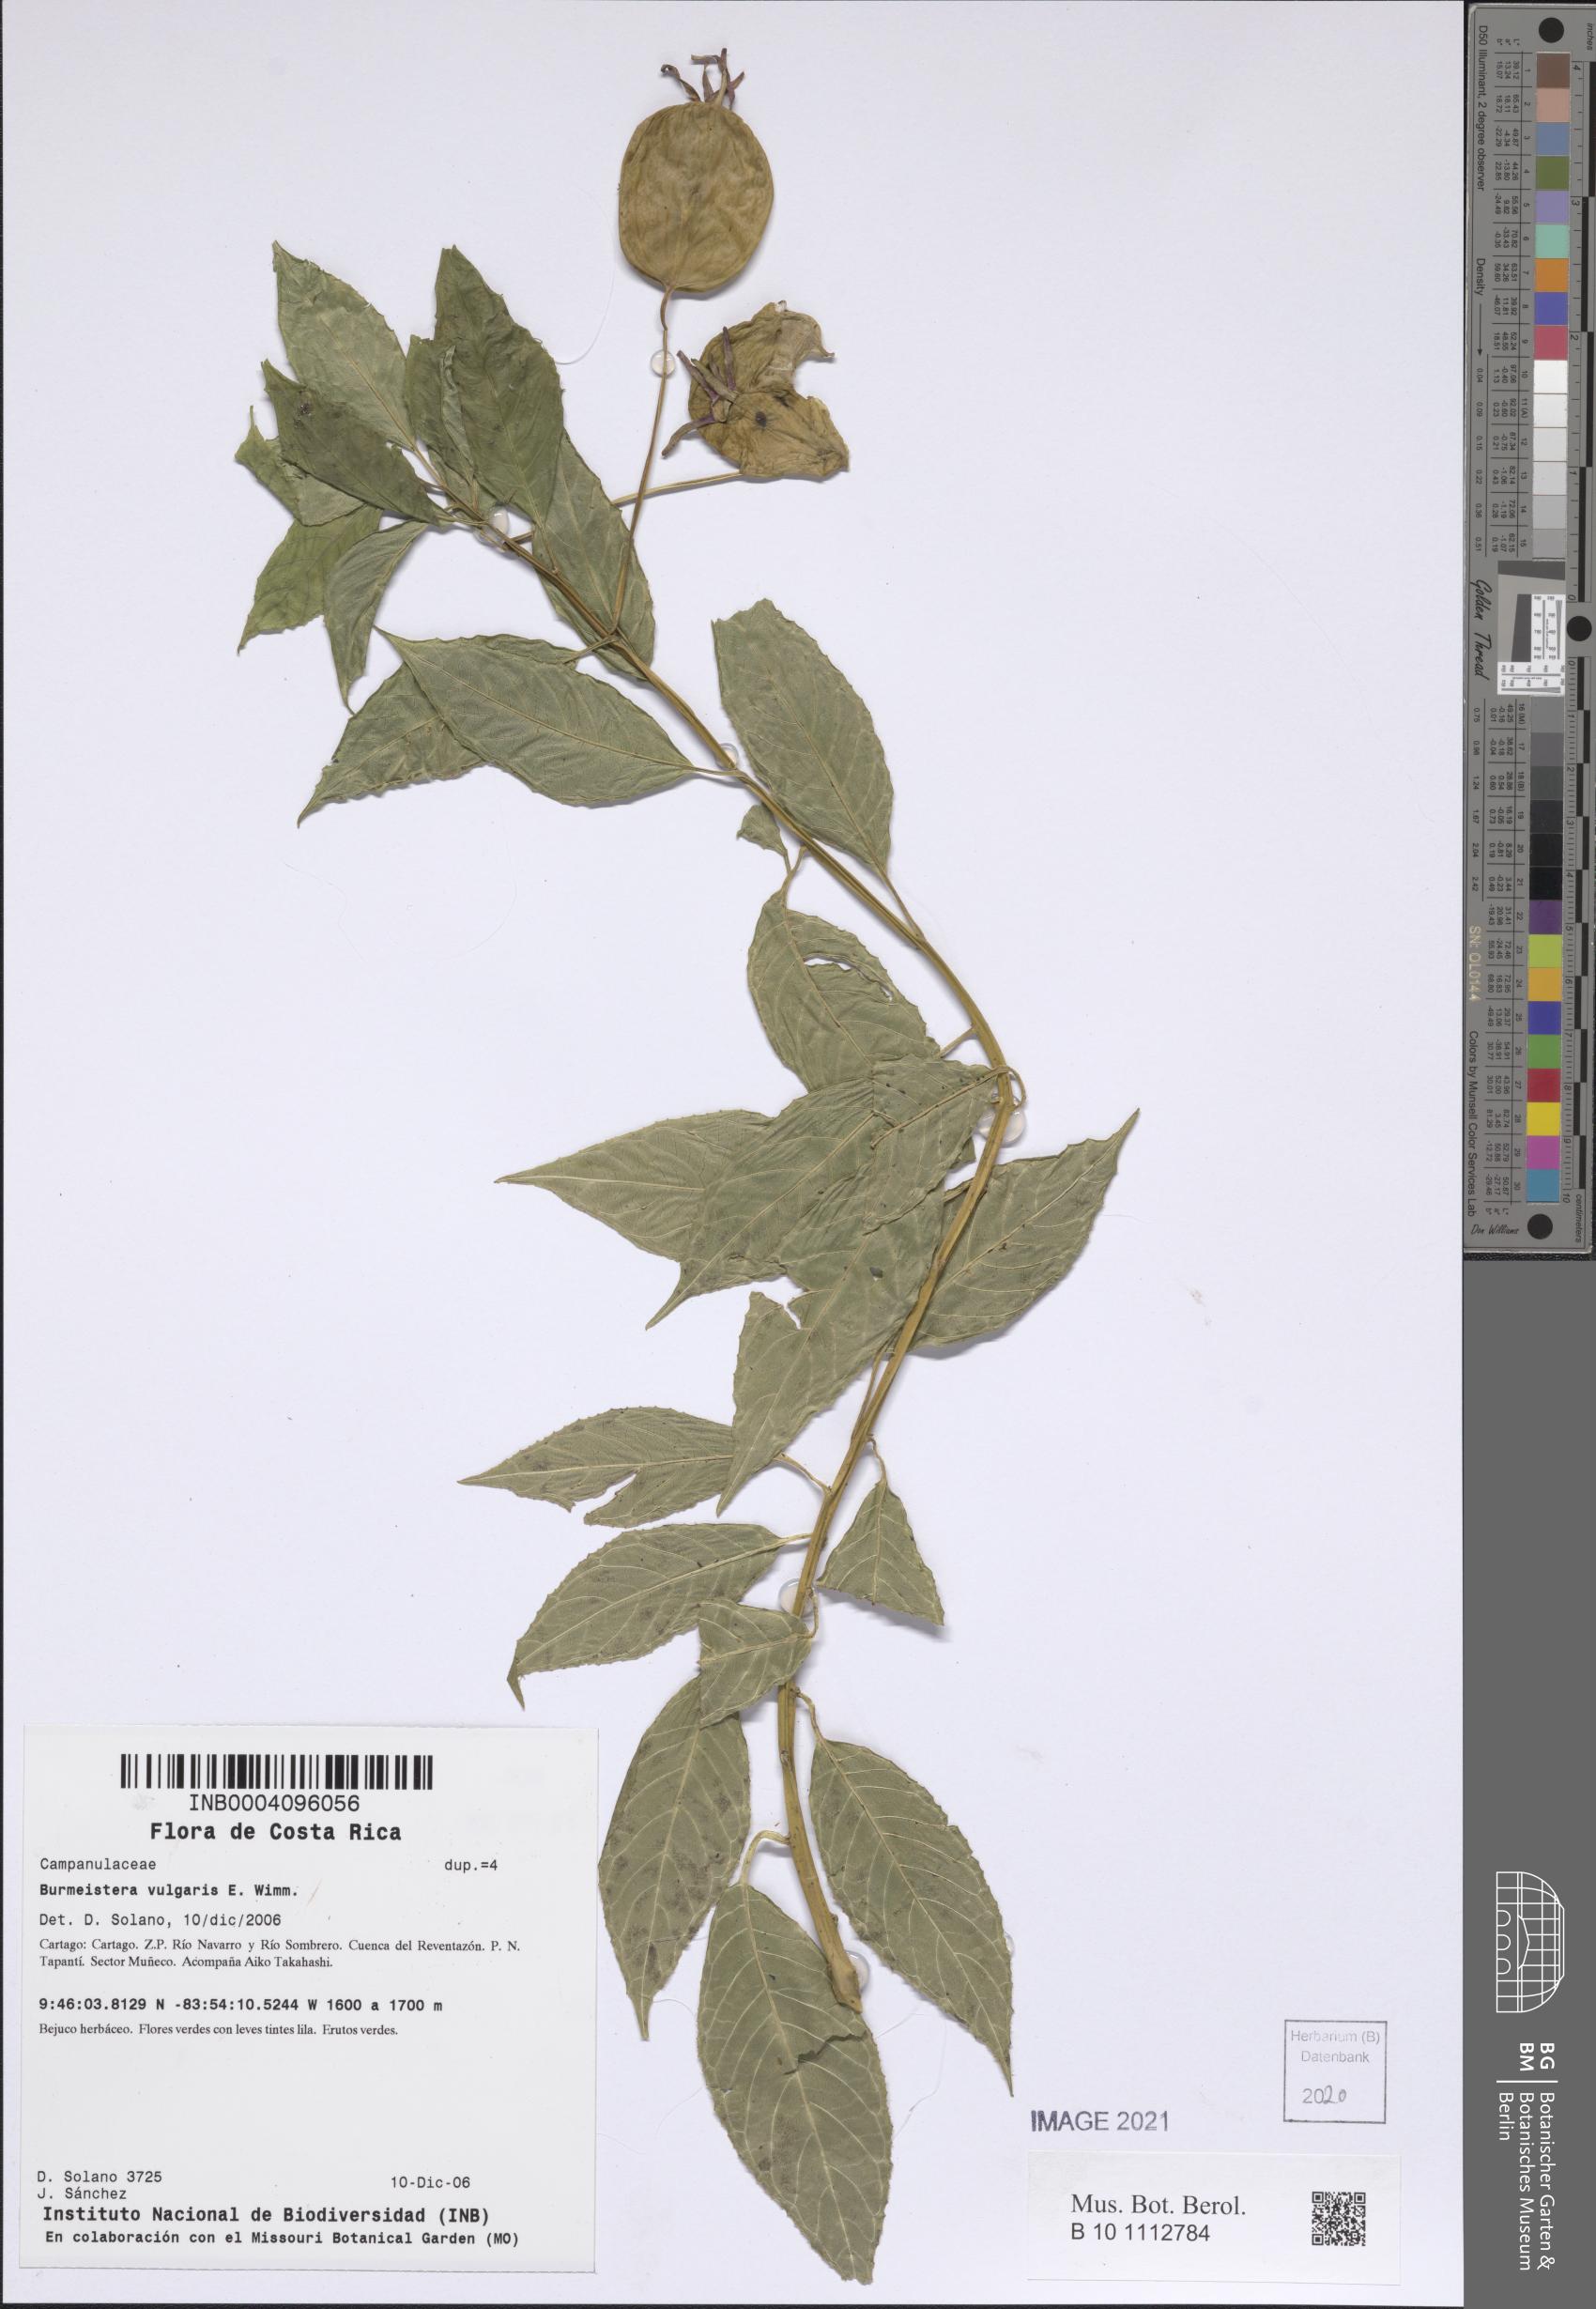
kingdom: Plantae
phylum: Tracheophyta
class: Magnoliopsida
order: Asterales
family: Campanulaceae
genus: Burmeistera
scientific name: Burmeistera vulgaris
